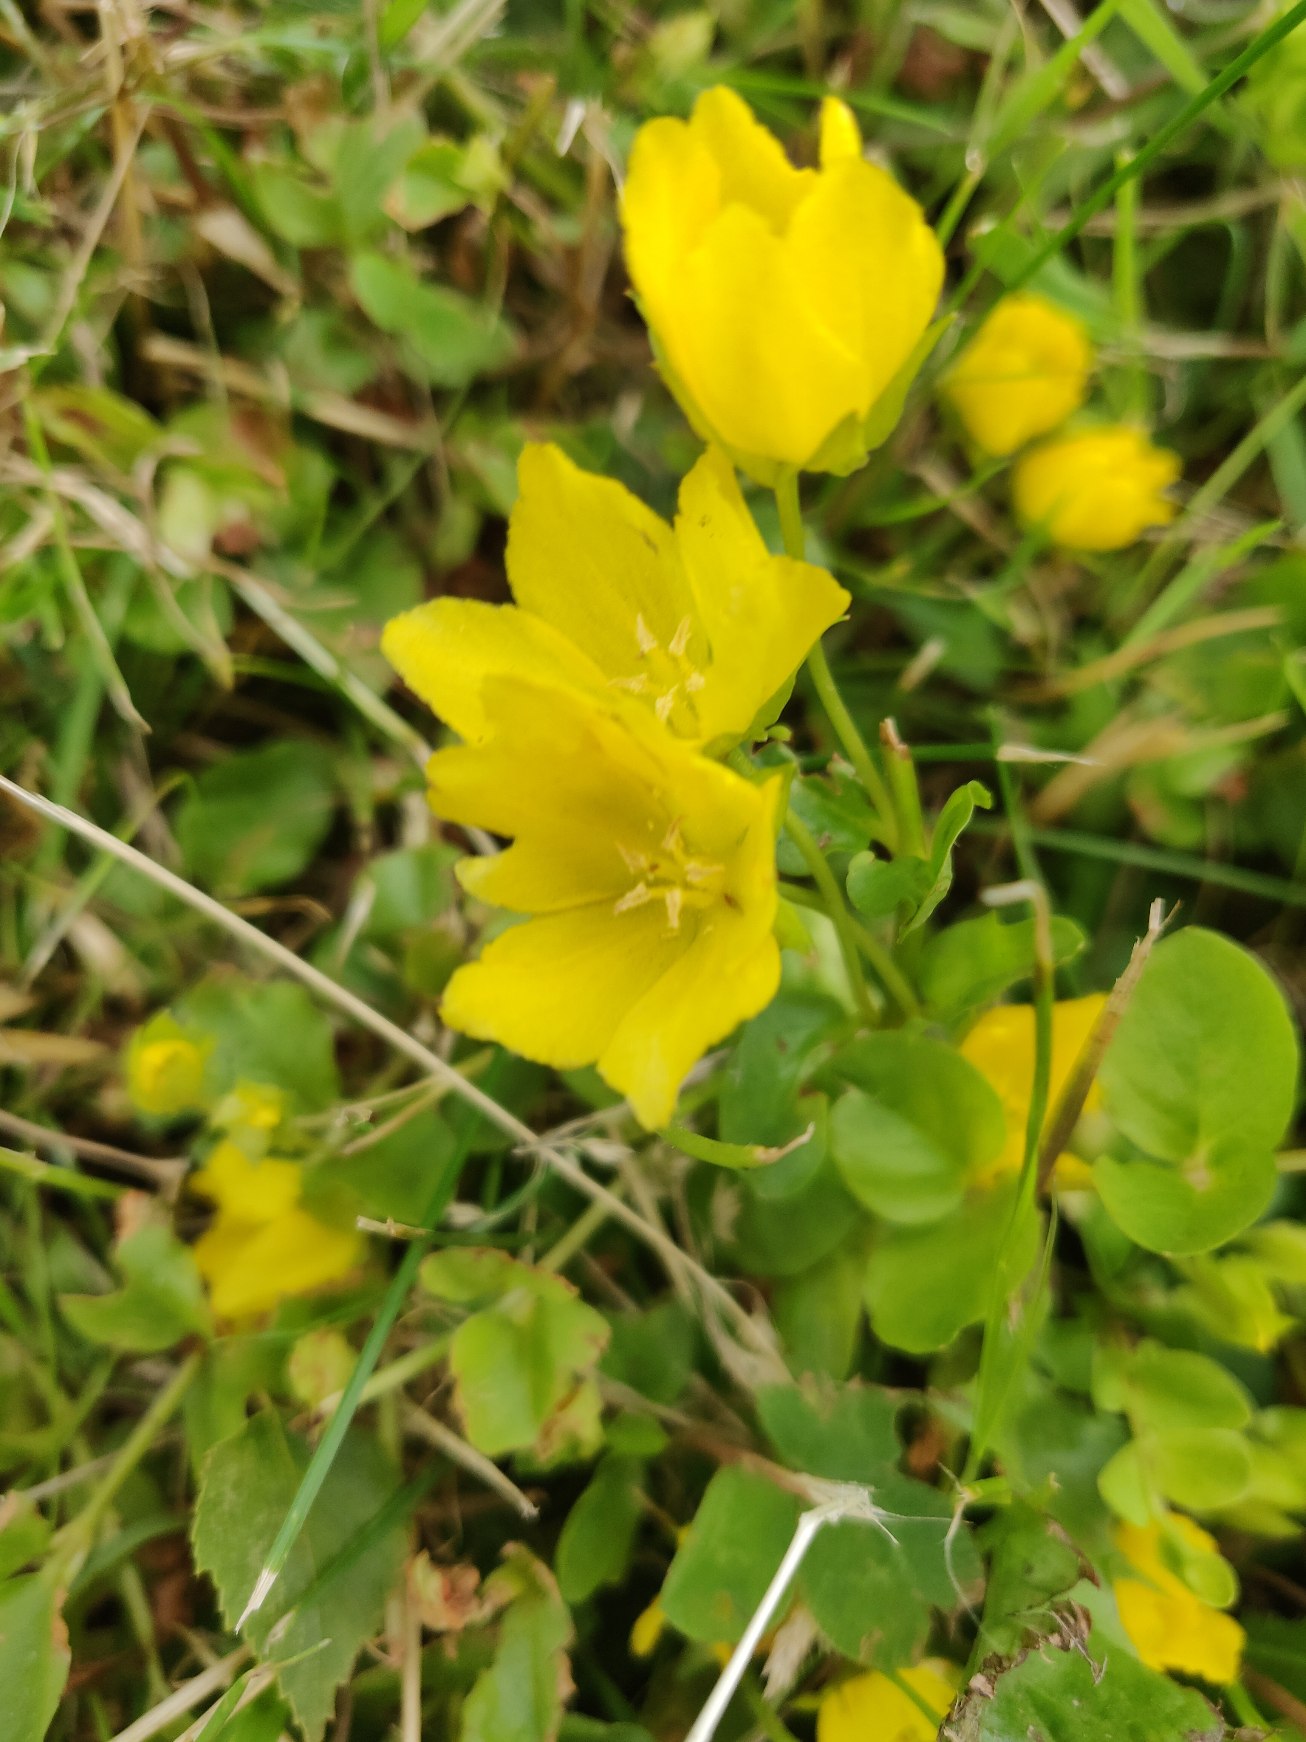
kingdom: Plantae
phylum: Tracheophyta
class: Magnoliopsida
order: Ericales
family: Primulaceae
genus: Lysimachia
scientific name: Lysimachia nummularia
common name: Pengebladet fredløs
